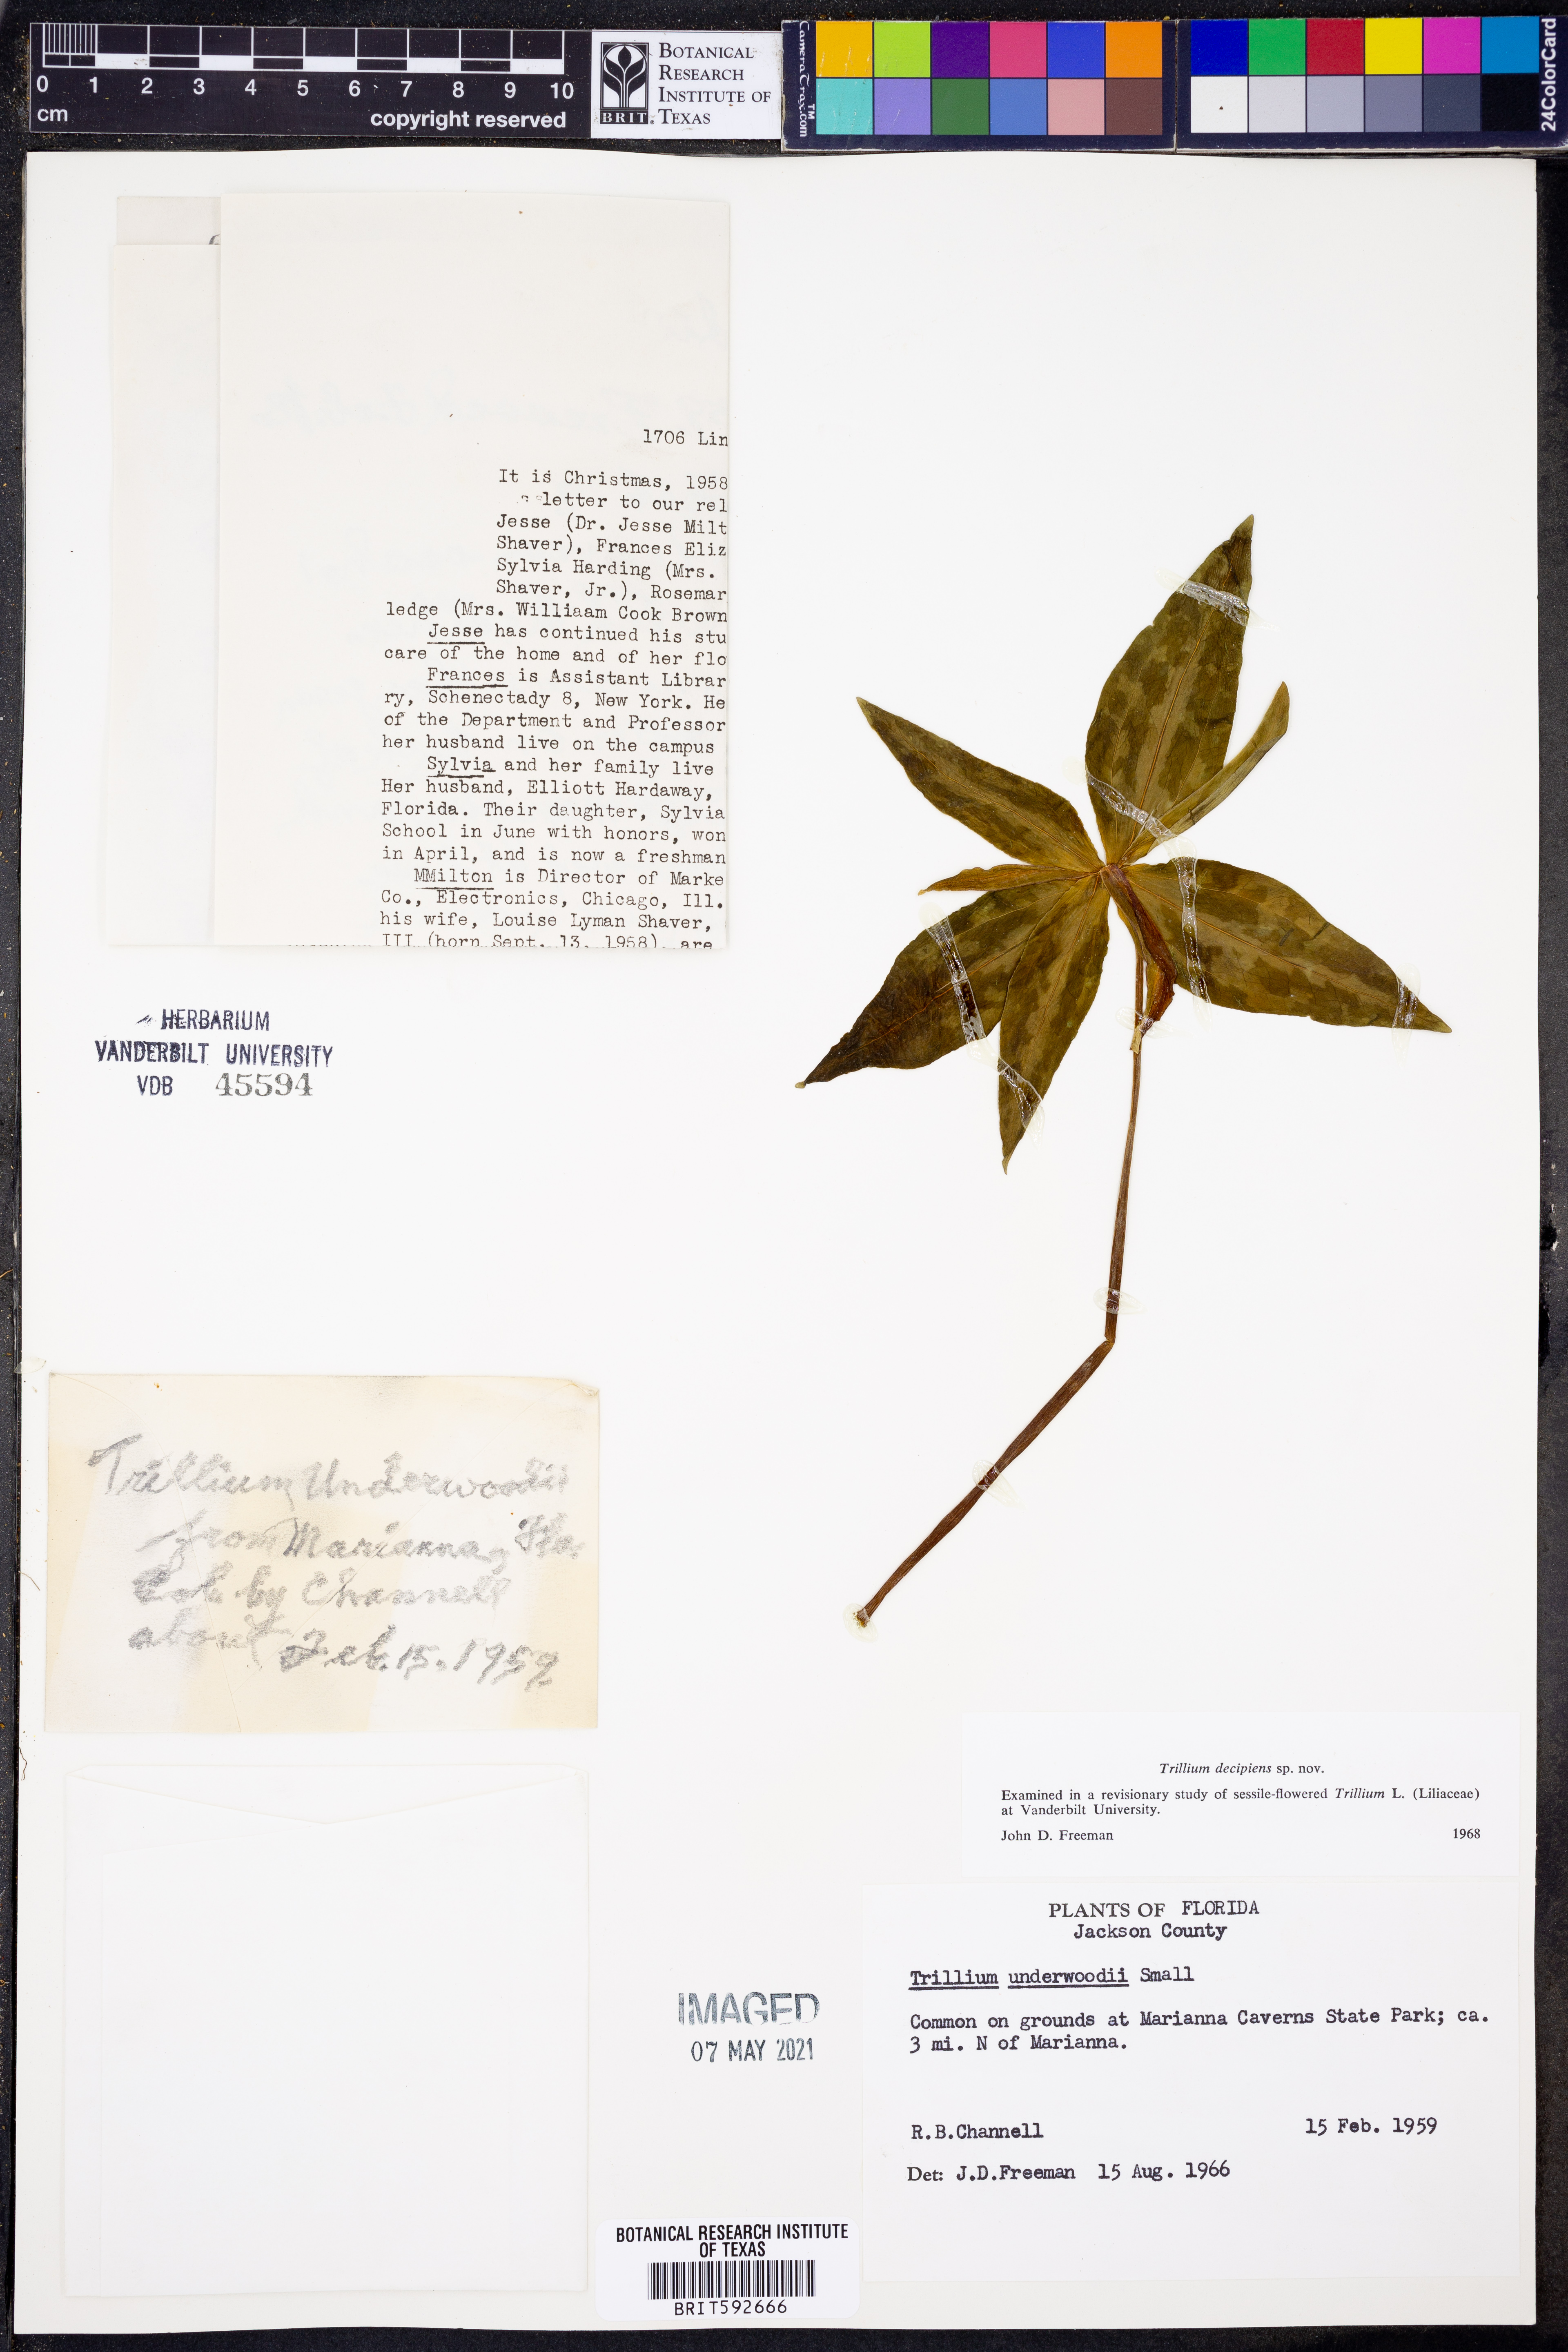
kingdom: Plantae
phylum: Tracheophyta
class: Liliopsida
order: Liliales
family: Melanthiaceae
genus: Trillium
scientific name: Trillium decipiens
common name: Chattahoochee river trillium
